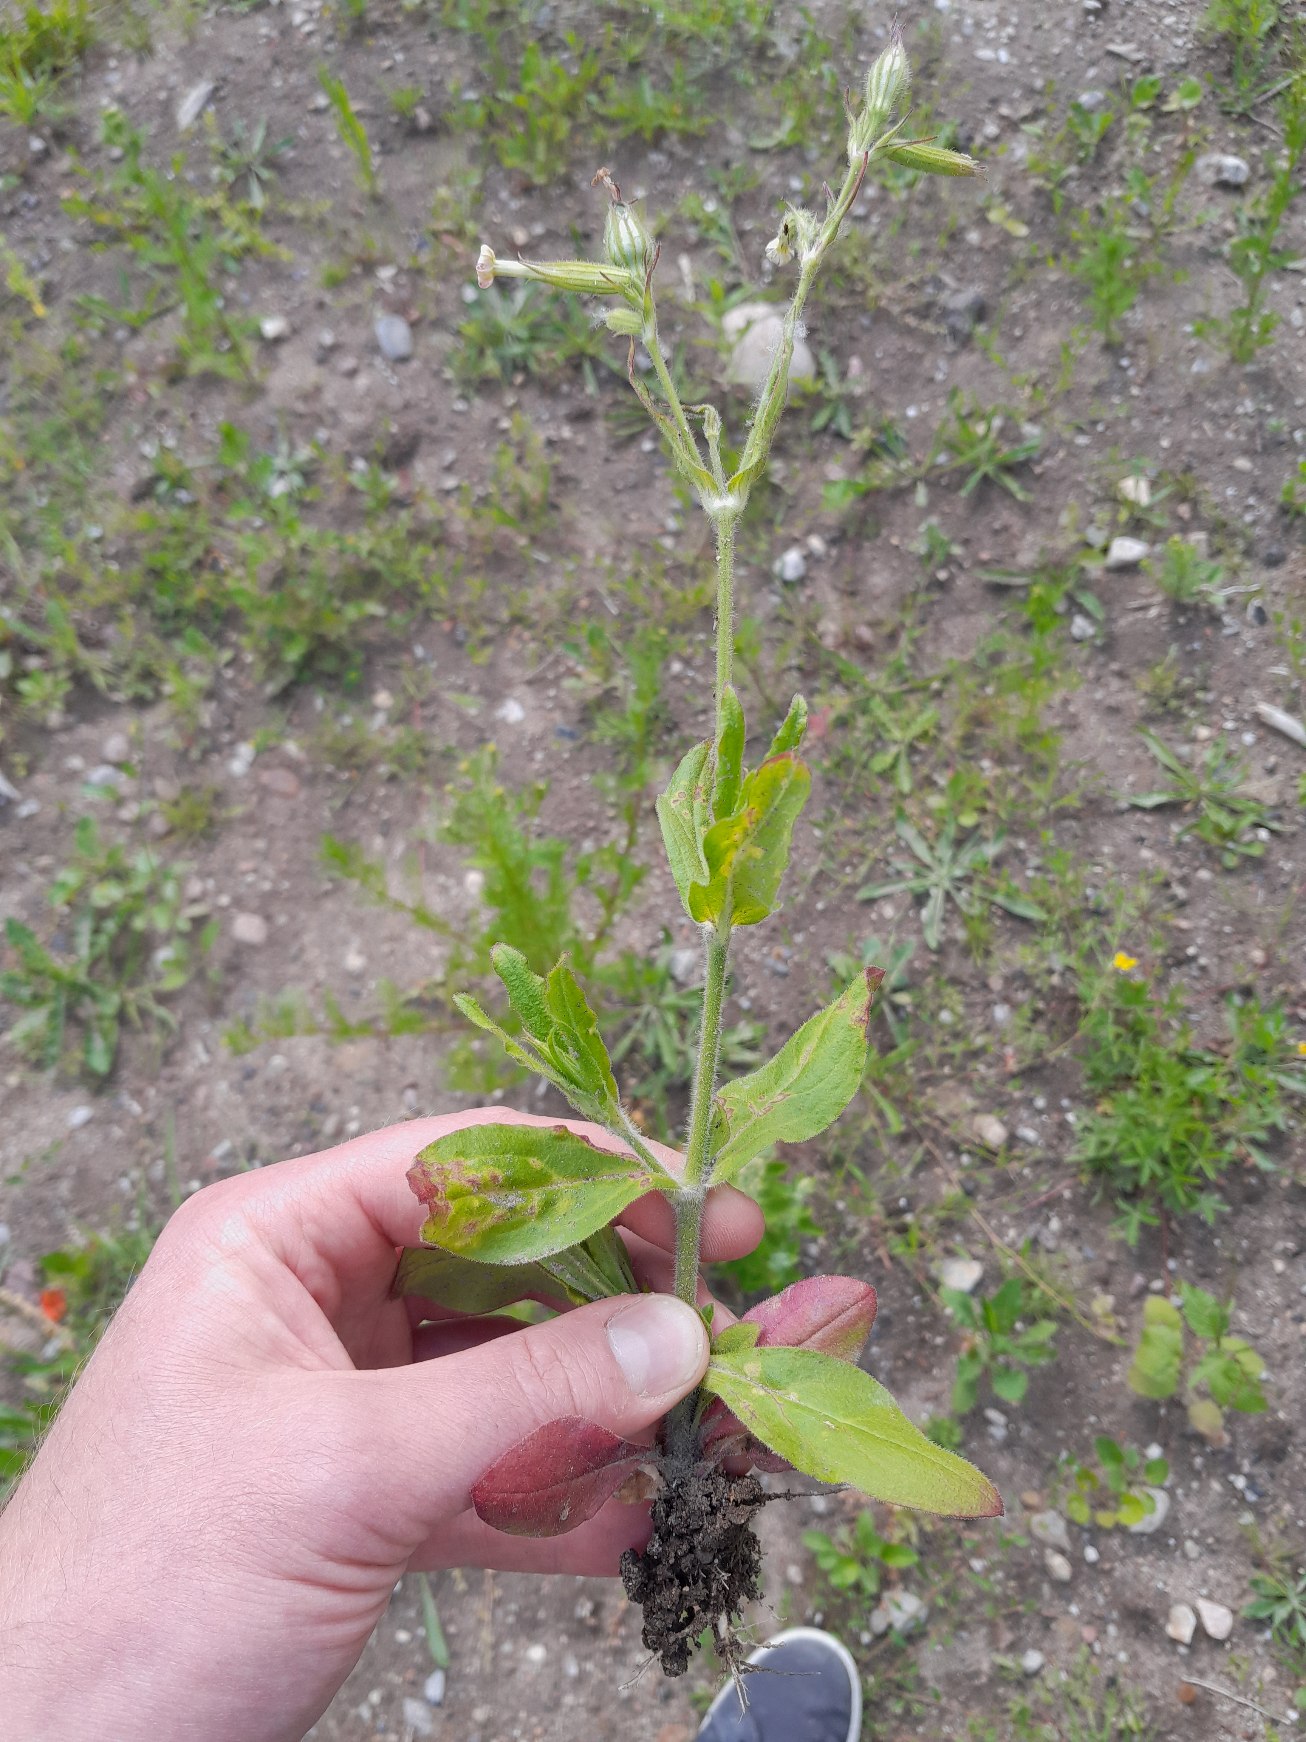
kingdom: Plantae
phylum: Tracheophyta
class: Magnoliopsida
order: Caryophyllales
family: Caryophyllaceae
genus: Silene
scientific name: Silene noctiflora
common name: Nat-limurt
